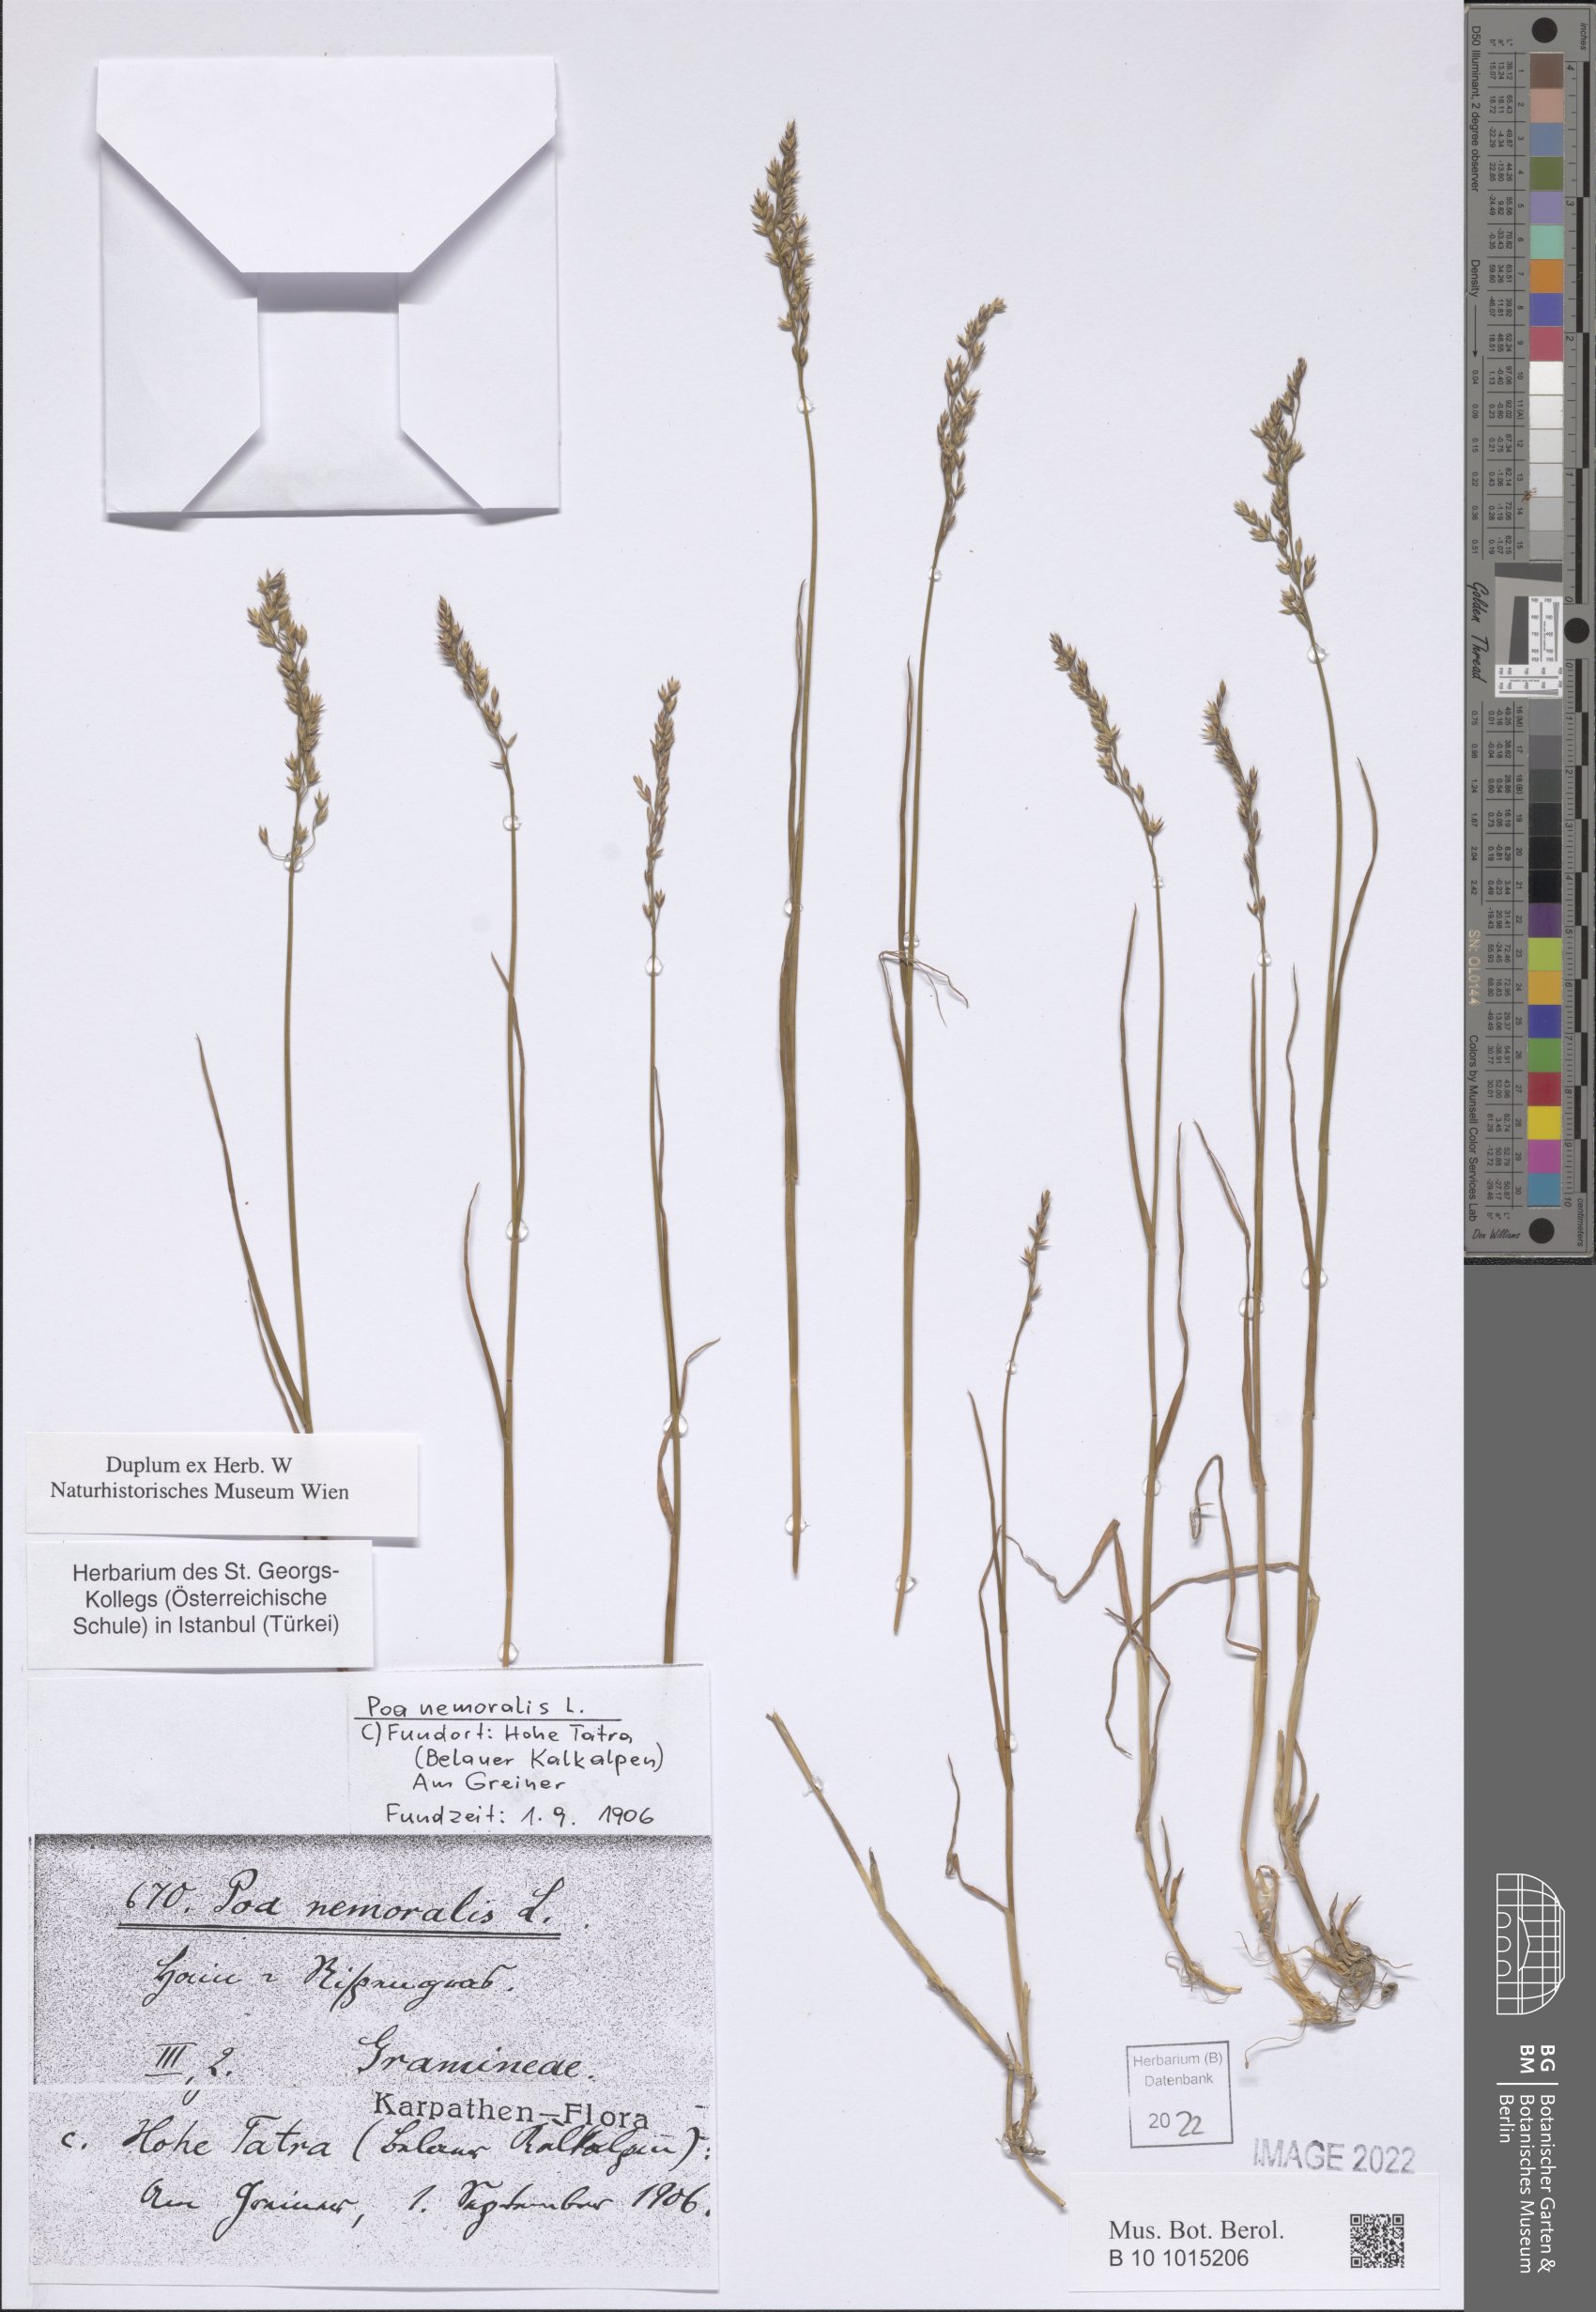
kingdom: Plantae
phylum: Tracheophyta
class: Liliopsida
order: Poales
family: Poaceae
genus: Poa
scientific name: Poa nemoralis
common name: Wood bluegrass
